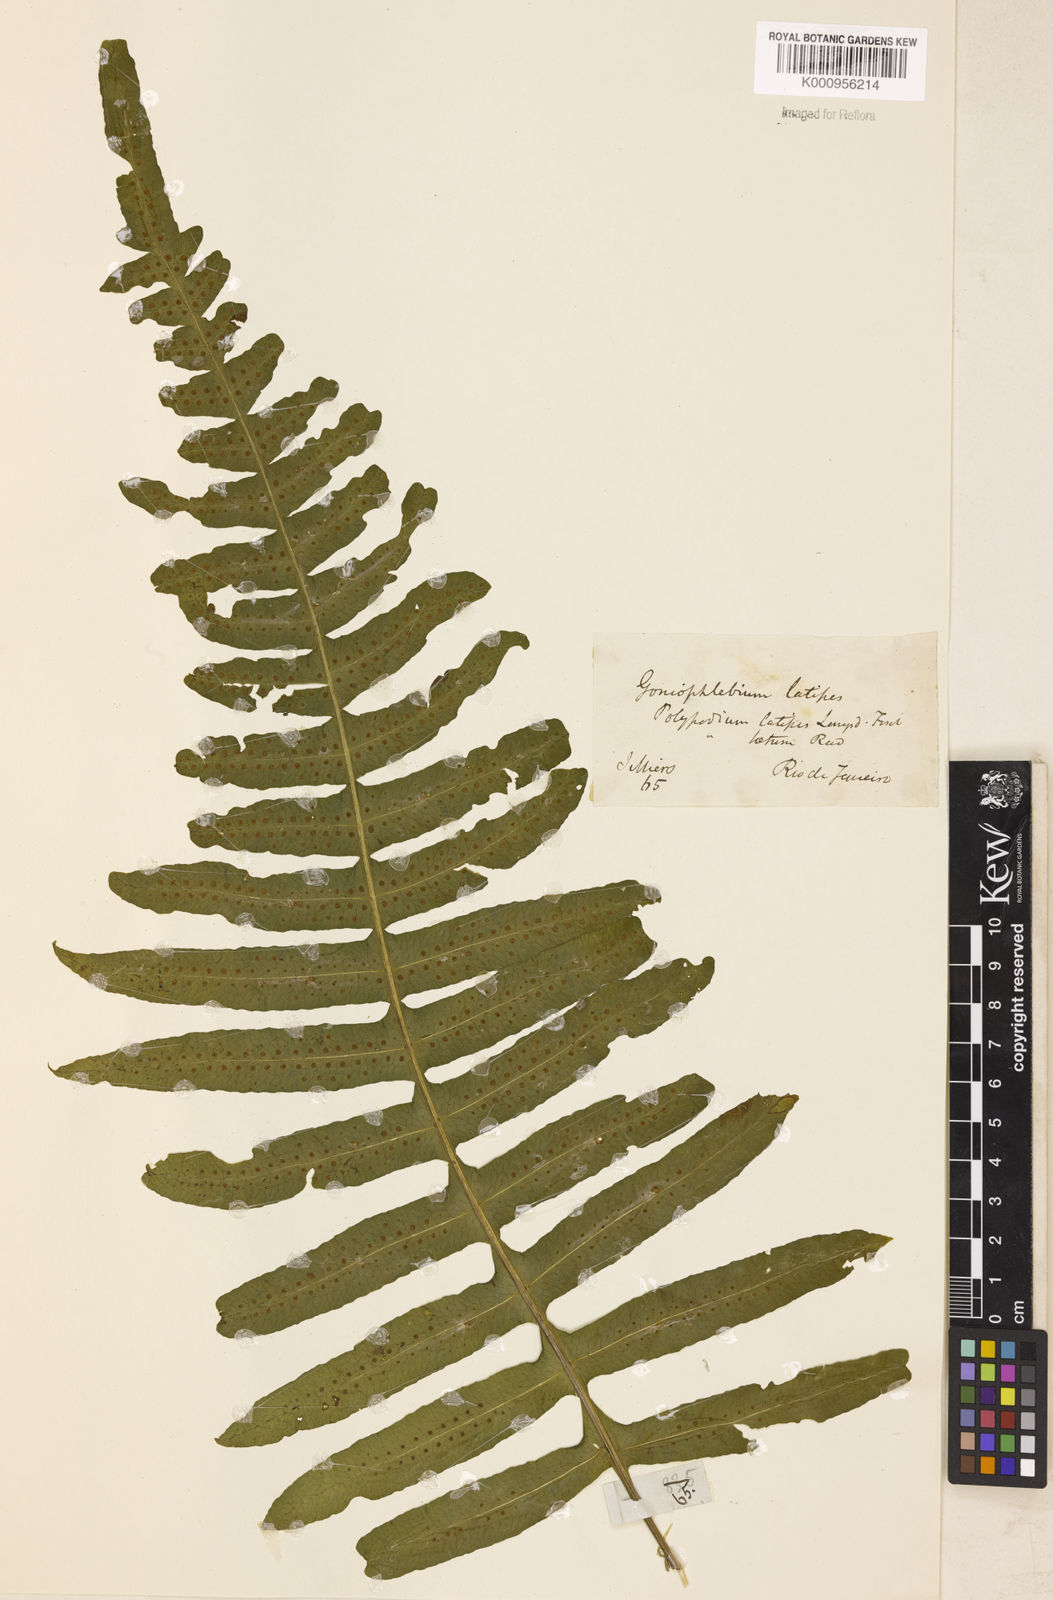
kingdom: Plantae
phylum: Tracheophyta
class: Polypodiopsida
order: Polypodiales
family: Polypodiaceae
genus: Serpocaulon
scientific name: Serpocaulon latipes
